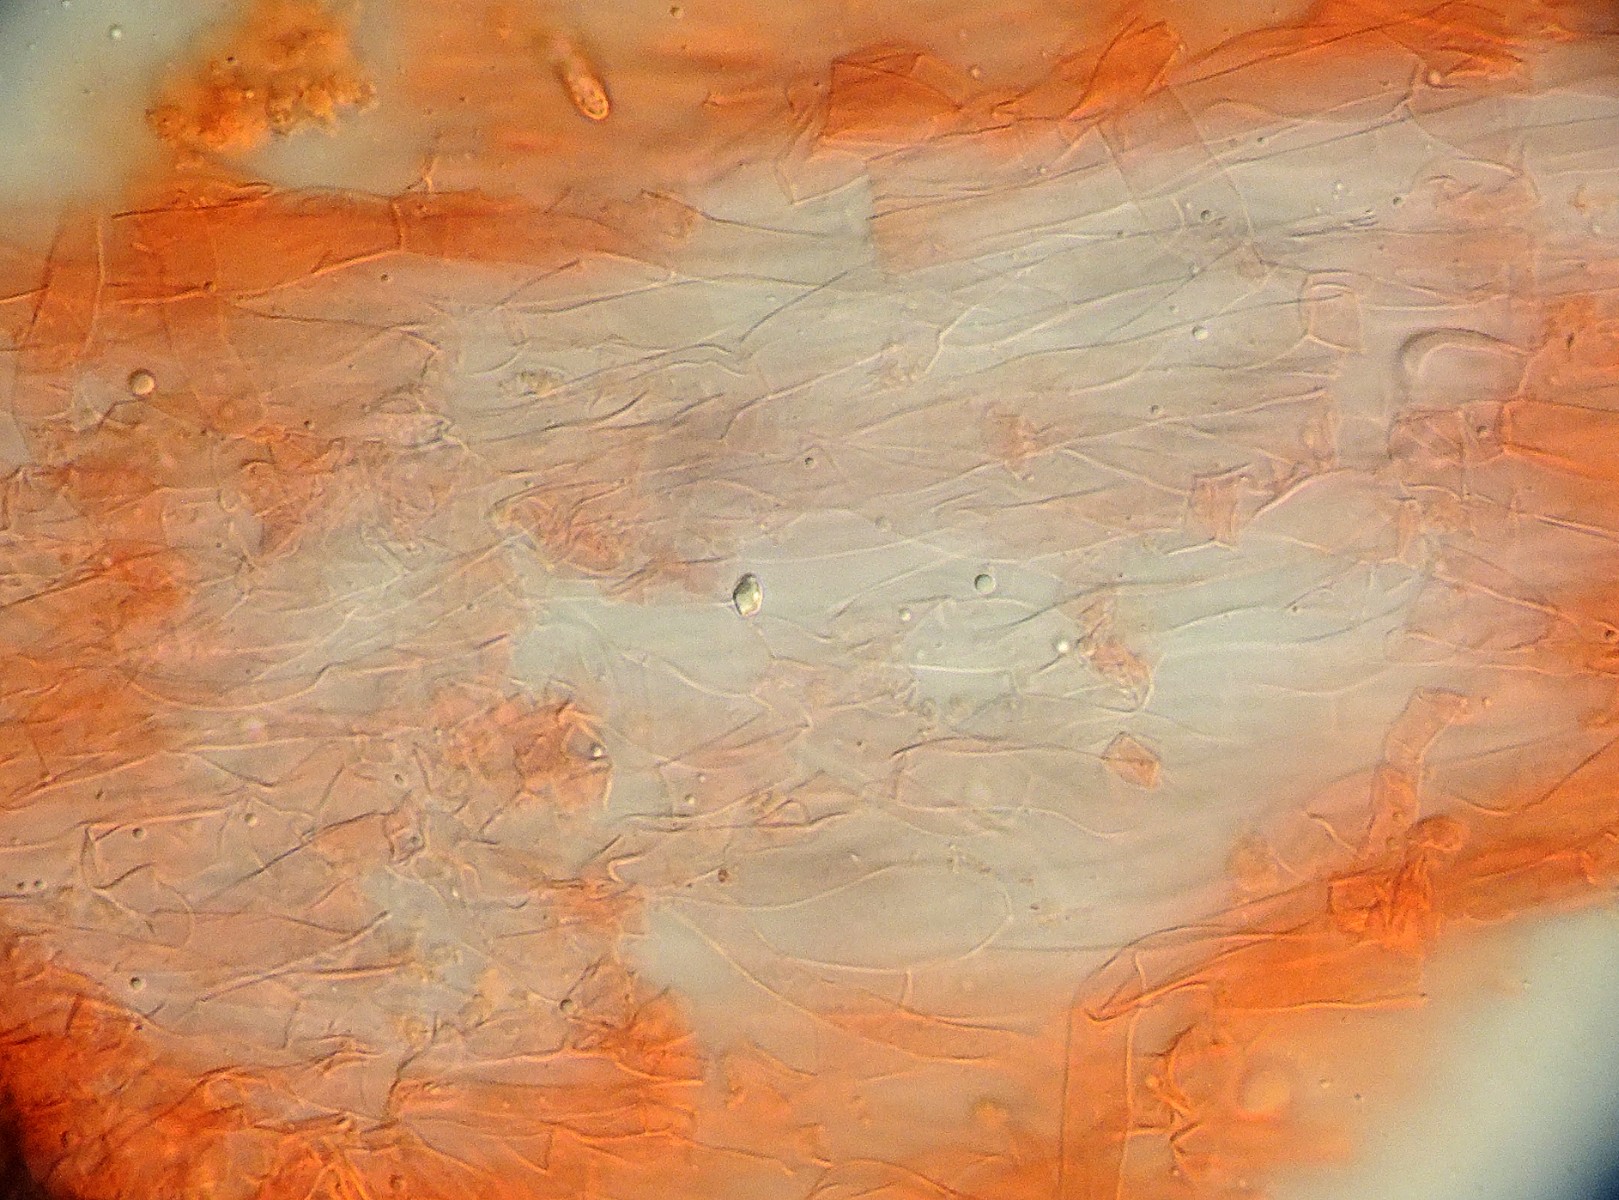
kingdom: Fungi
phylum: Basidiomycota
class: Agaricomycetes
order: Gomphales
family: Gomphaceae
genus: Ramaria
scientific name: Ramaria krieglsteineri
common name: smalsporet koralsvamp
